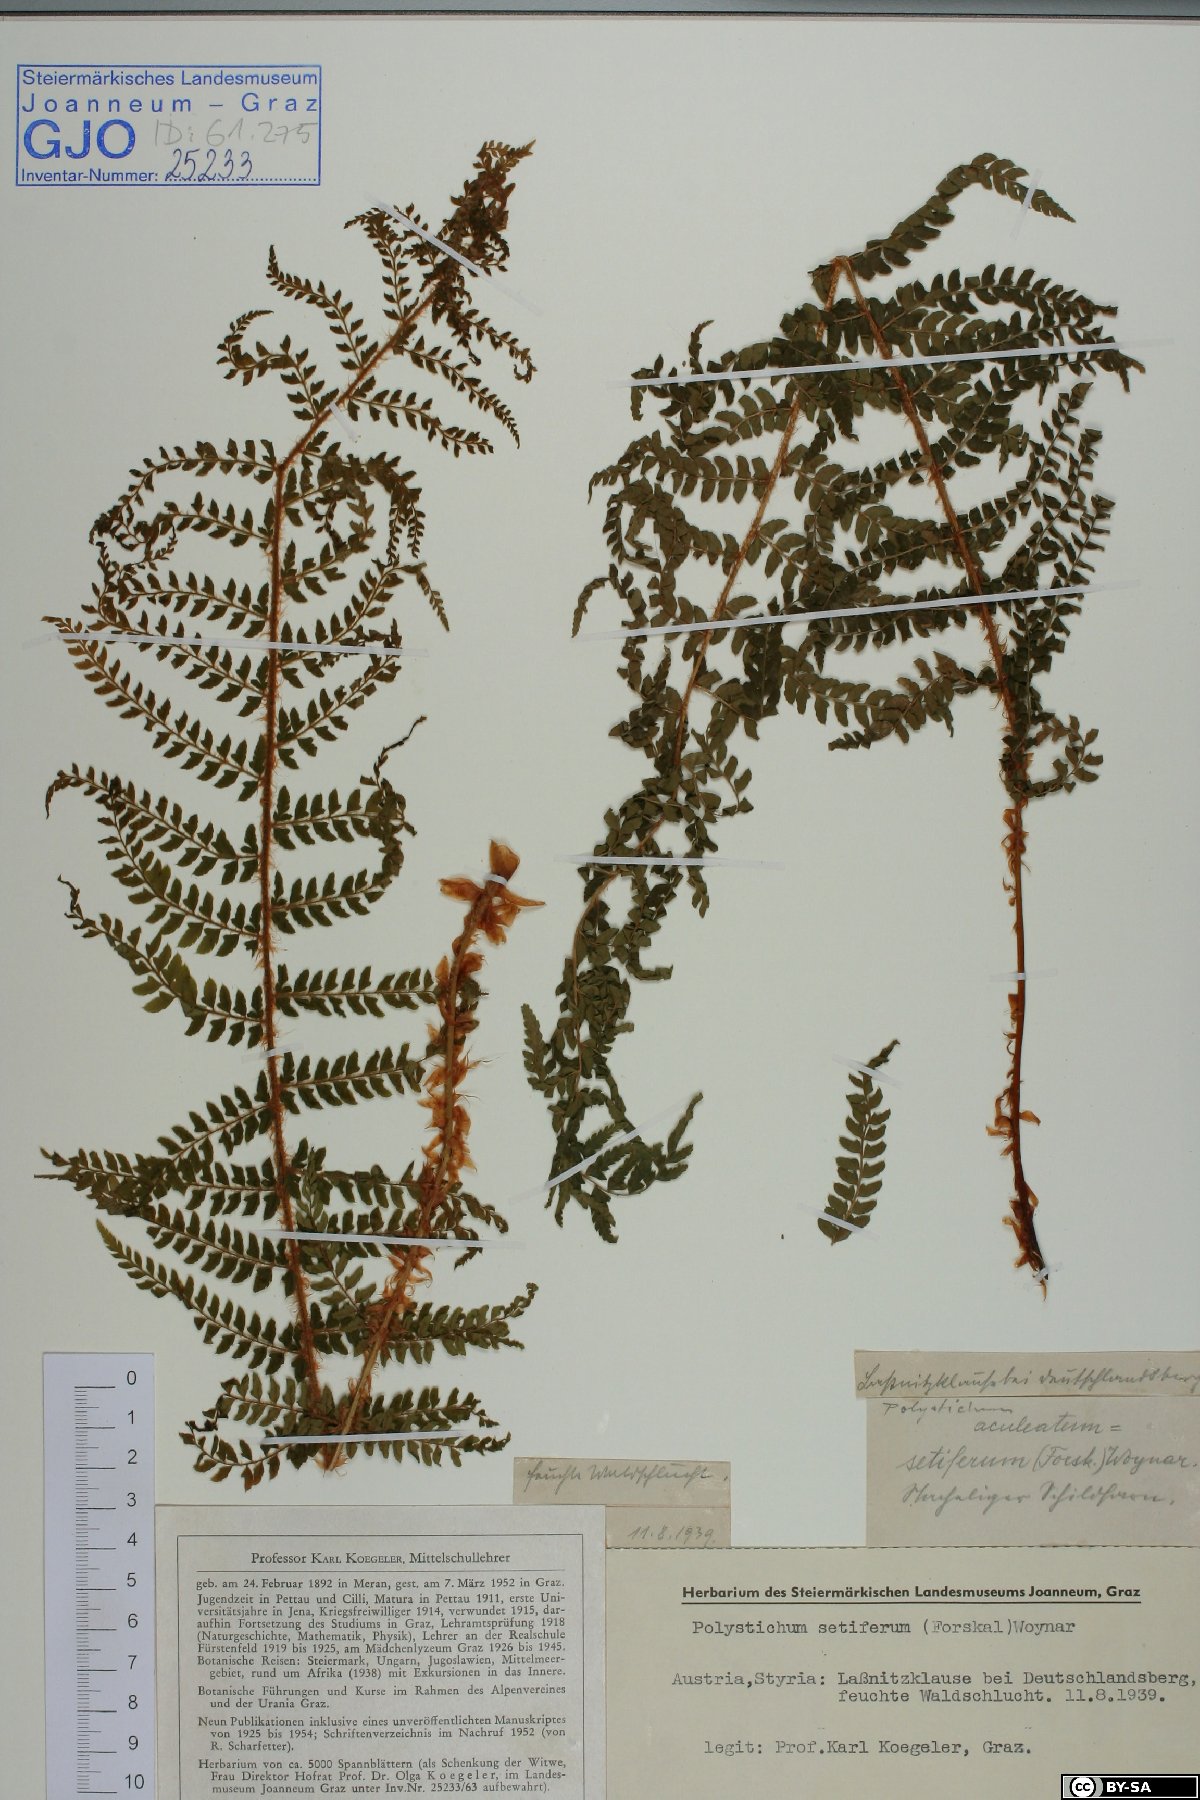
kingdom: Plantae
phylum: Tracheophyta
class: Polypodiopsida
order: Polypodiales
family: Dryopteridaceae
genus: Polystichum
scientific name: Polystichum setiferum
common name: Soft shield-fern
